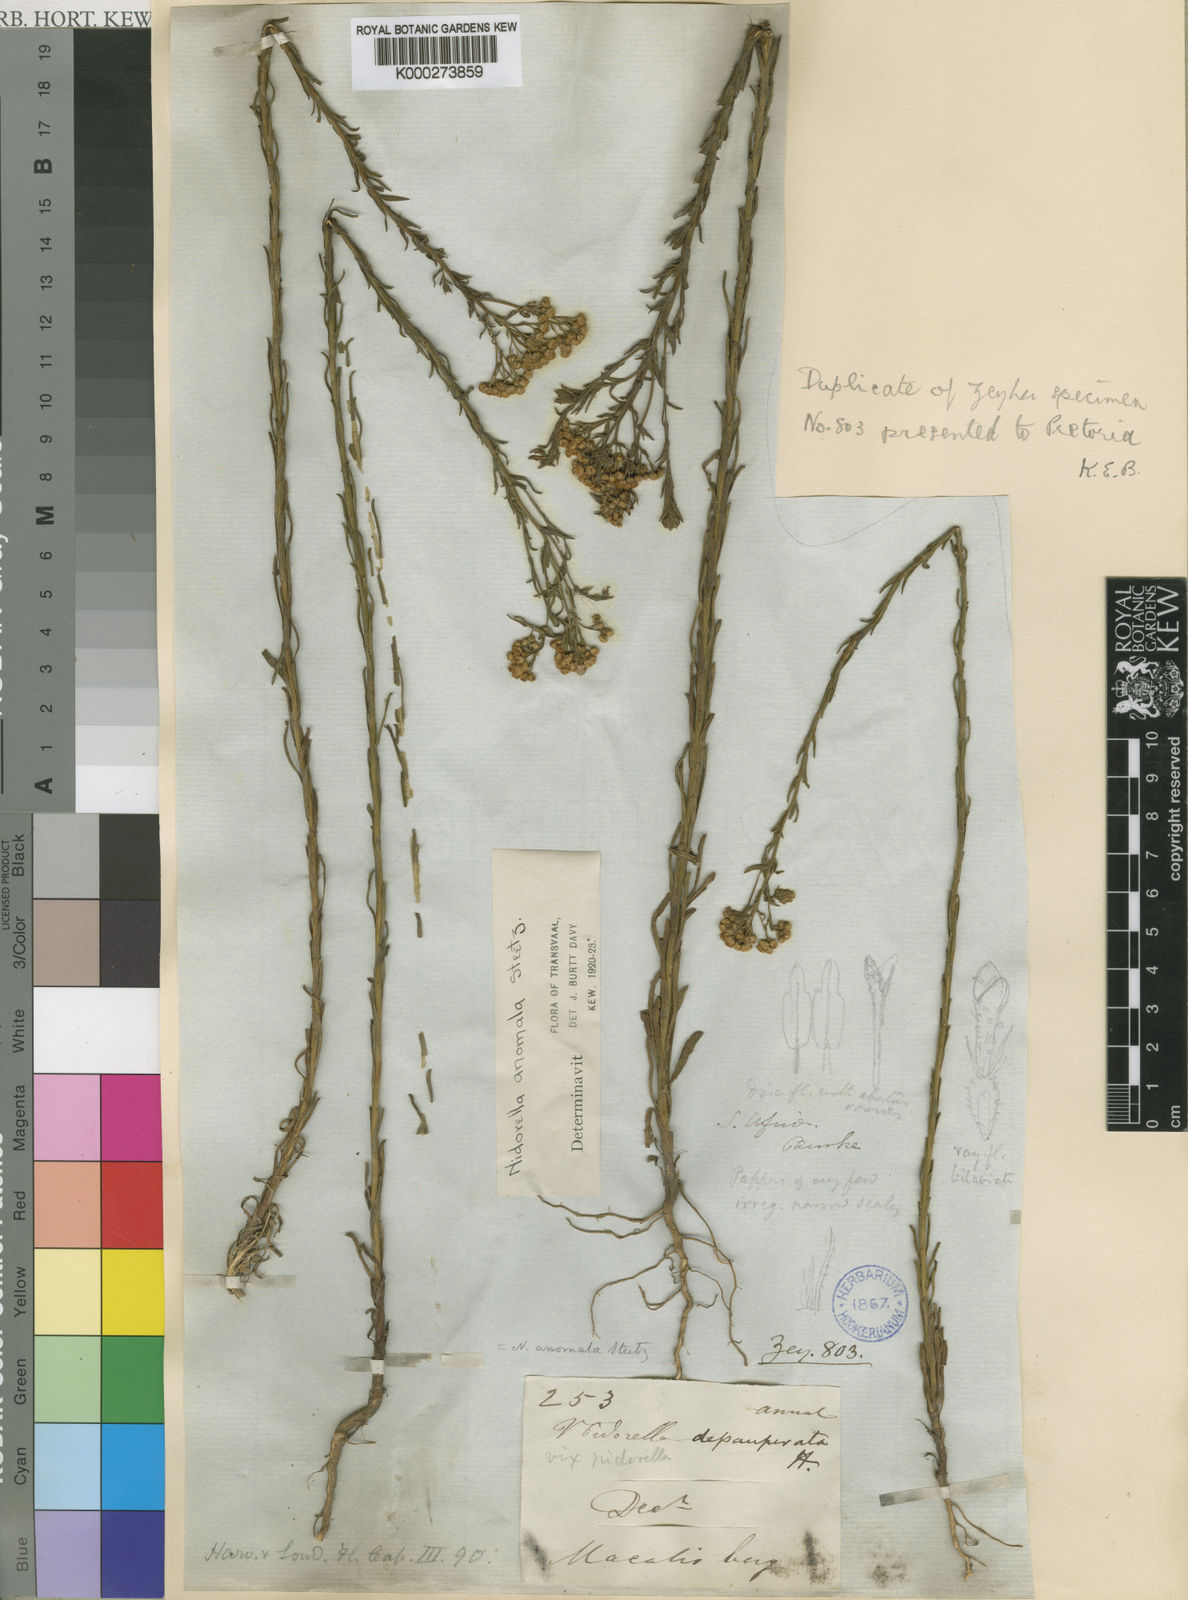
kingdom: Plantae
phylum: Tracheophyta
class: Magnoliopsida
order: Asterales
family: Asteraceae
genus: Nidorella
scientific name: Nidorella anomala
